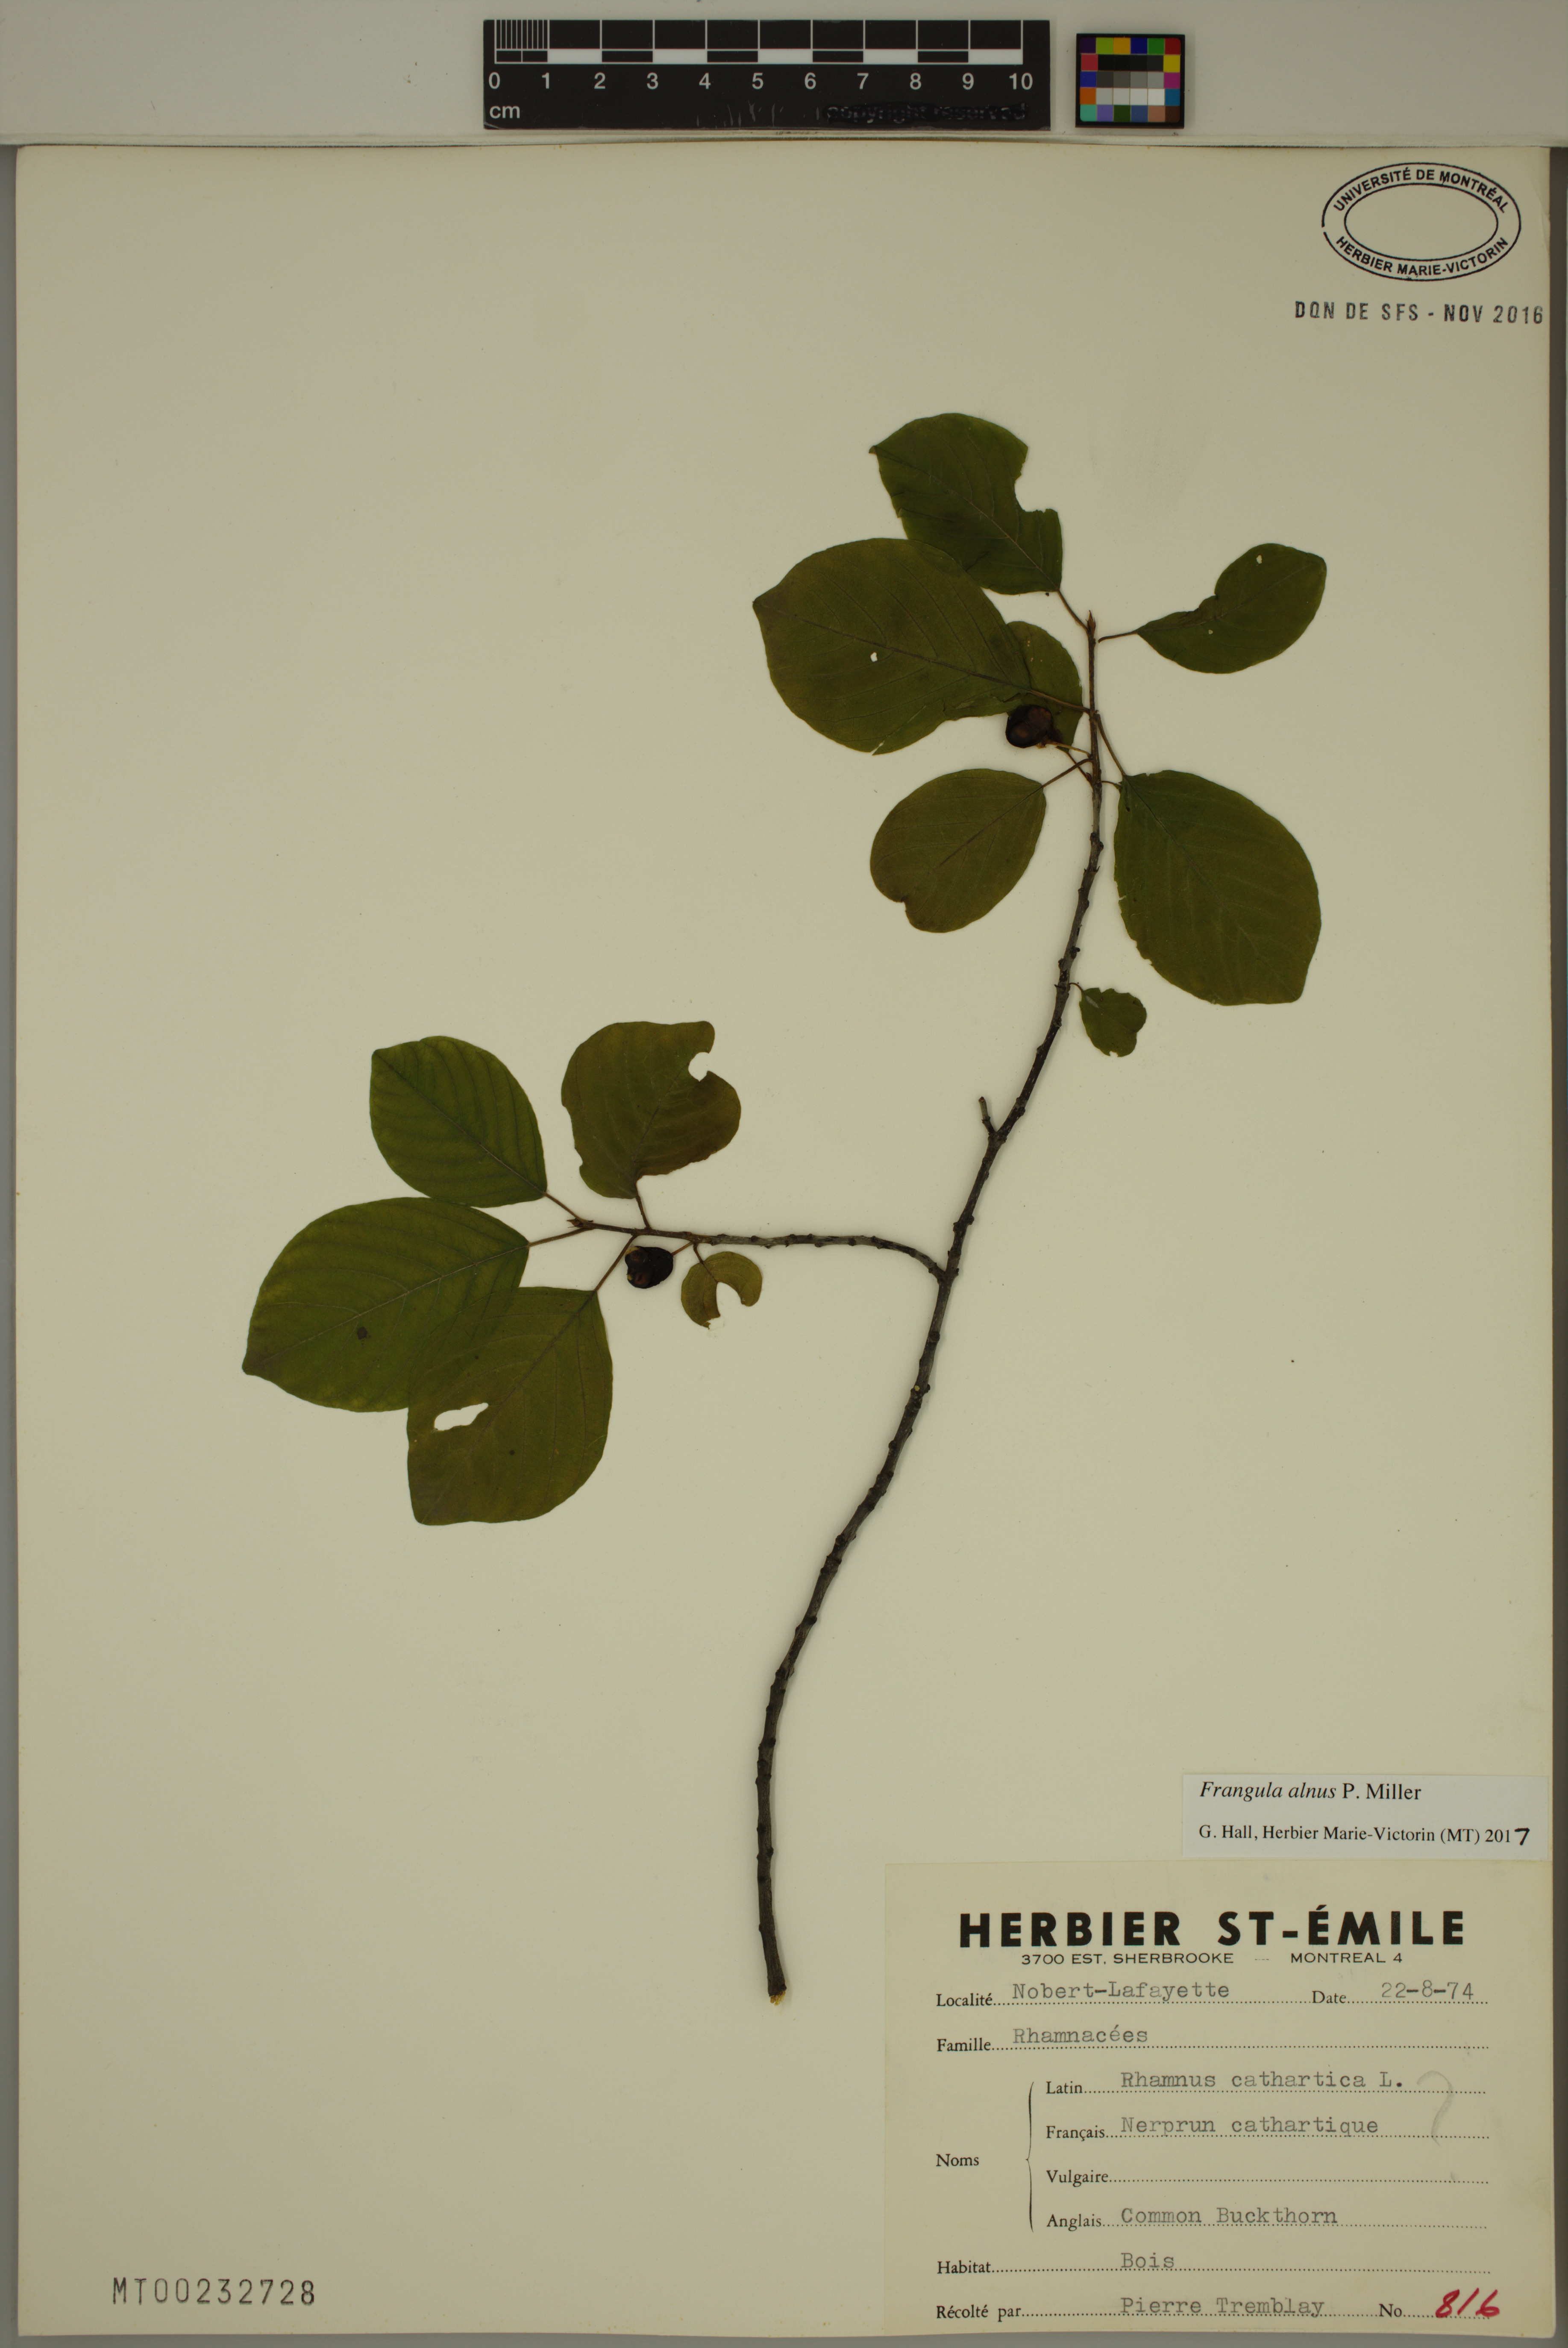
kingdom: Plantae
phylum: Tracheophyta
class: Magnoliopsida
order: Rosales
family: Rhamnaceae
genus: Frangula
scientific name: Frangula alnus
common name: Alder buckthorn
